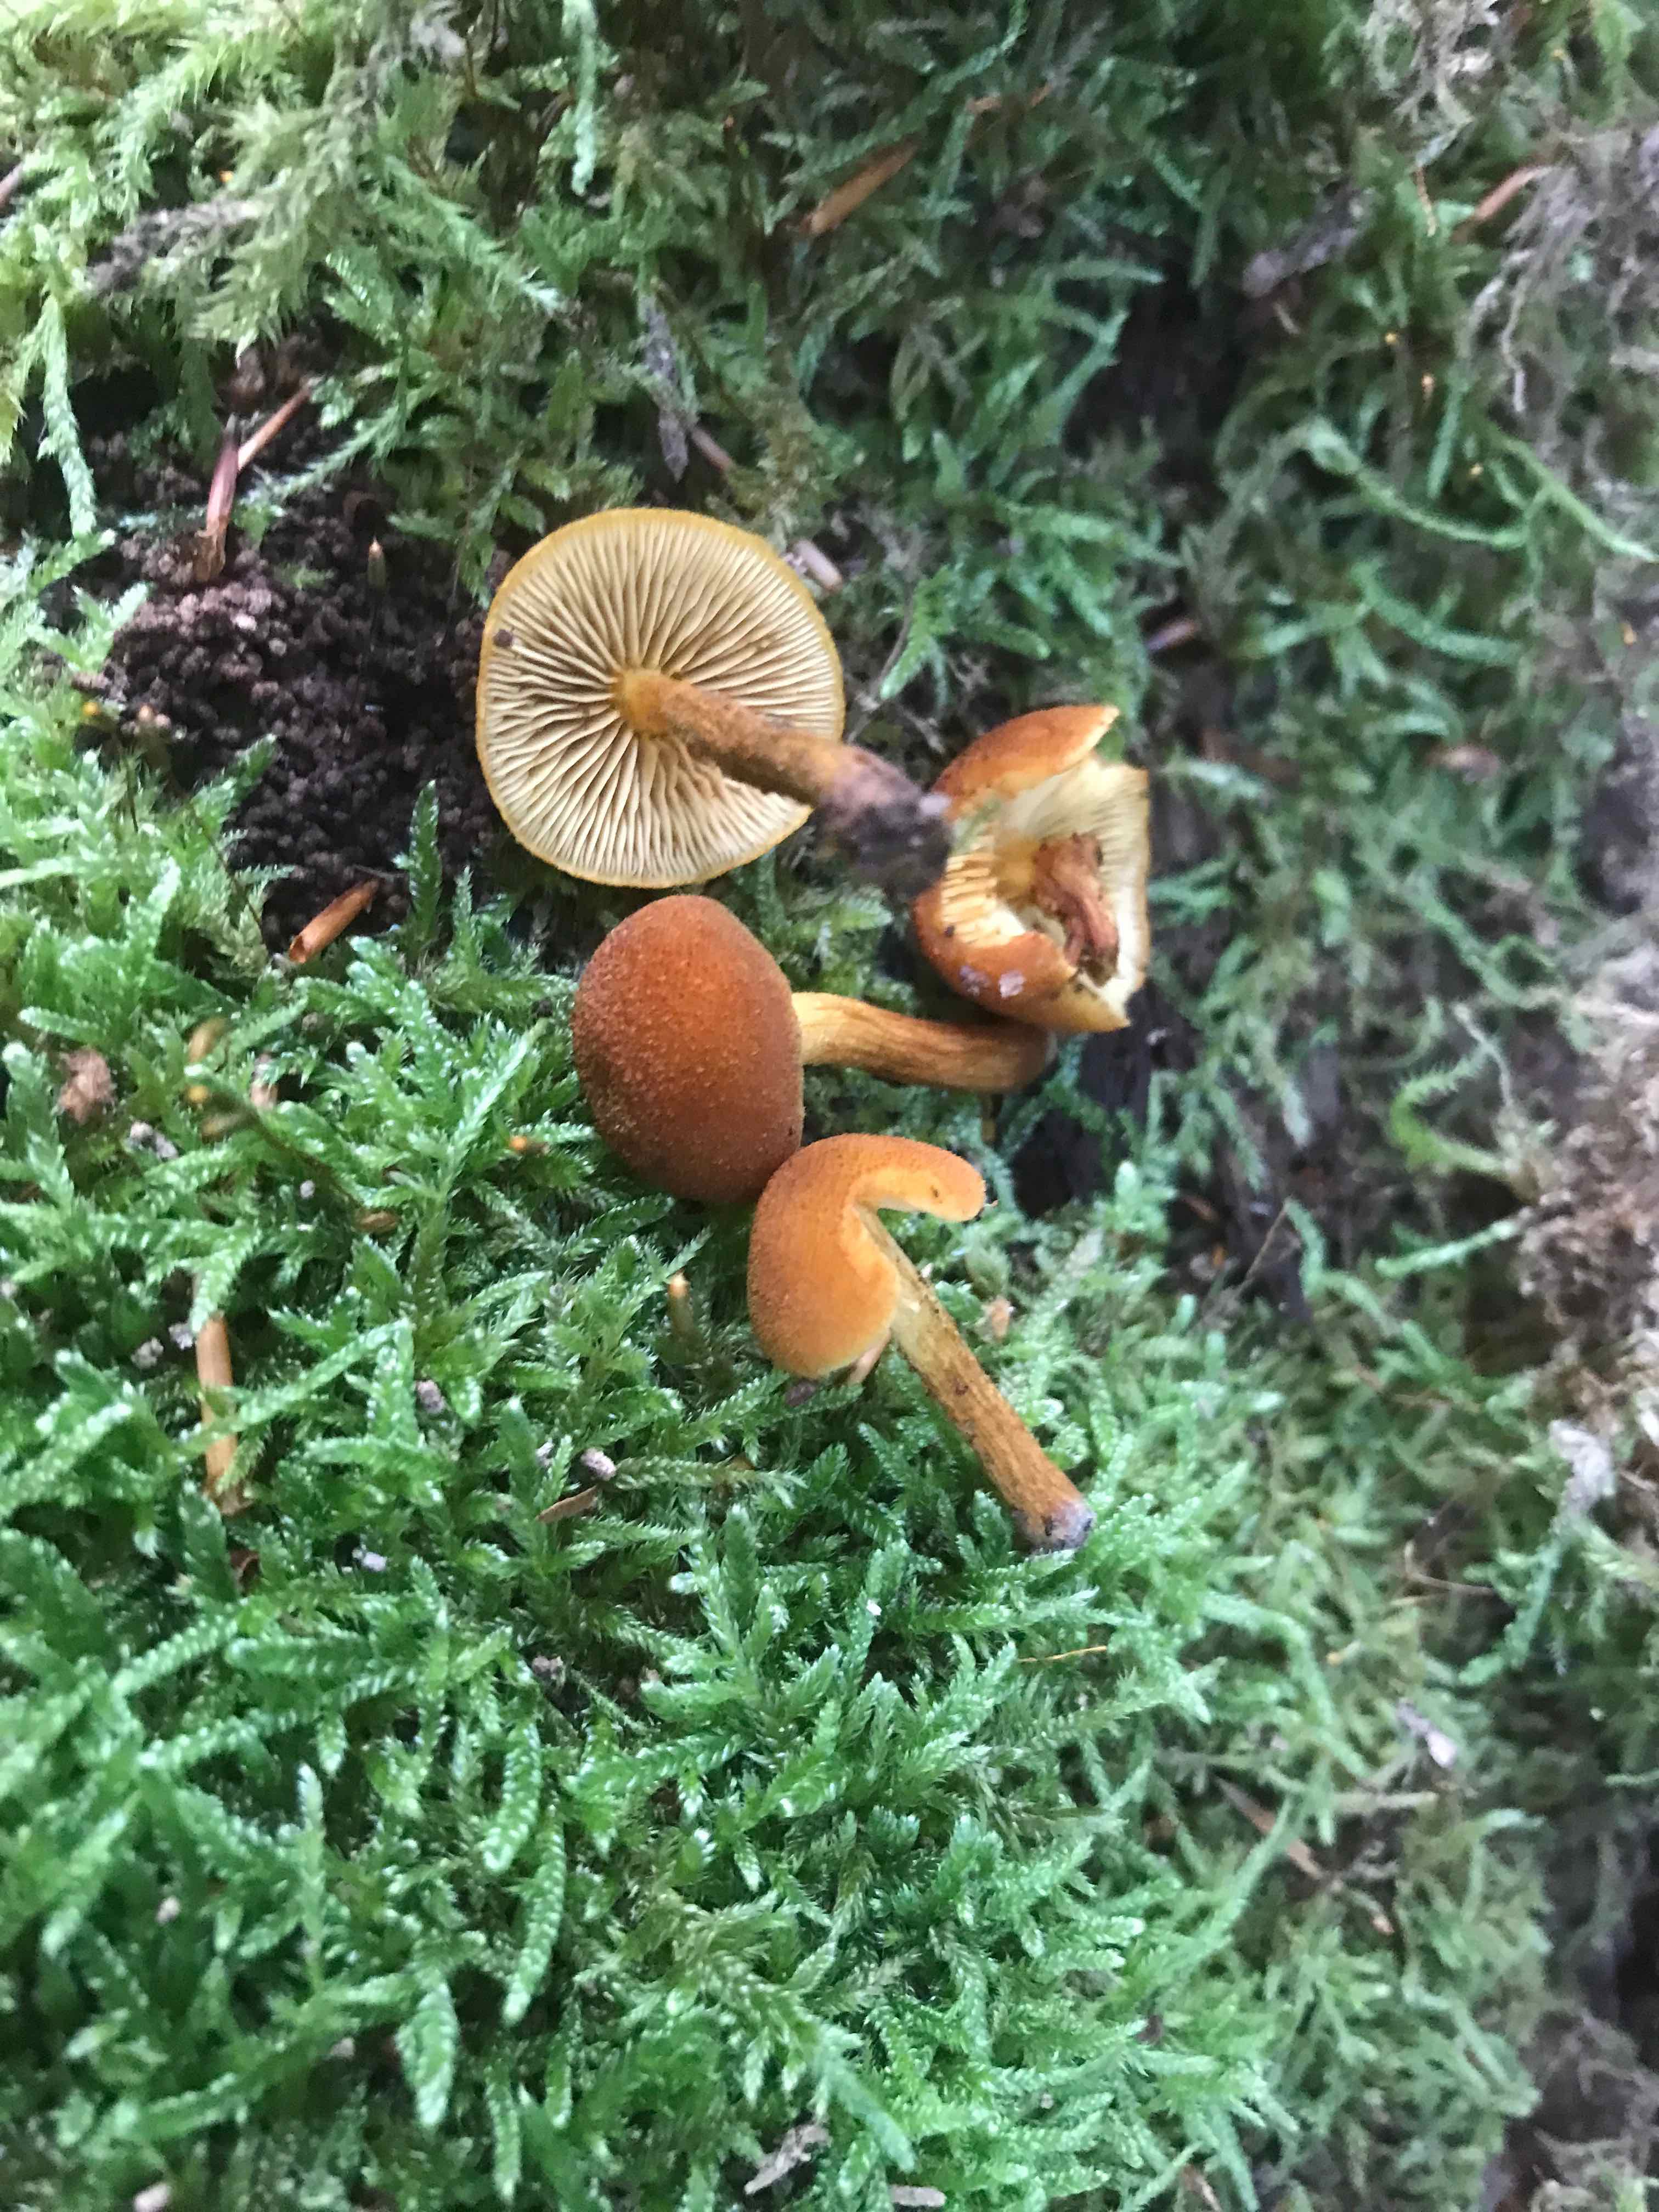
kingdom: Fungi
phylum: Basidiomycota
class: Agaricomycetes
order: Agaricales
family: Tubariaceae
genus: Flammulaster
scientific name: Flammulaster limulatus
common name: gylden grynskælhat
